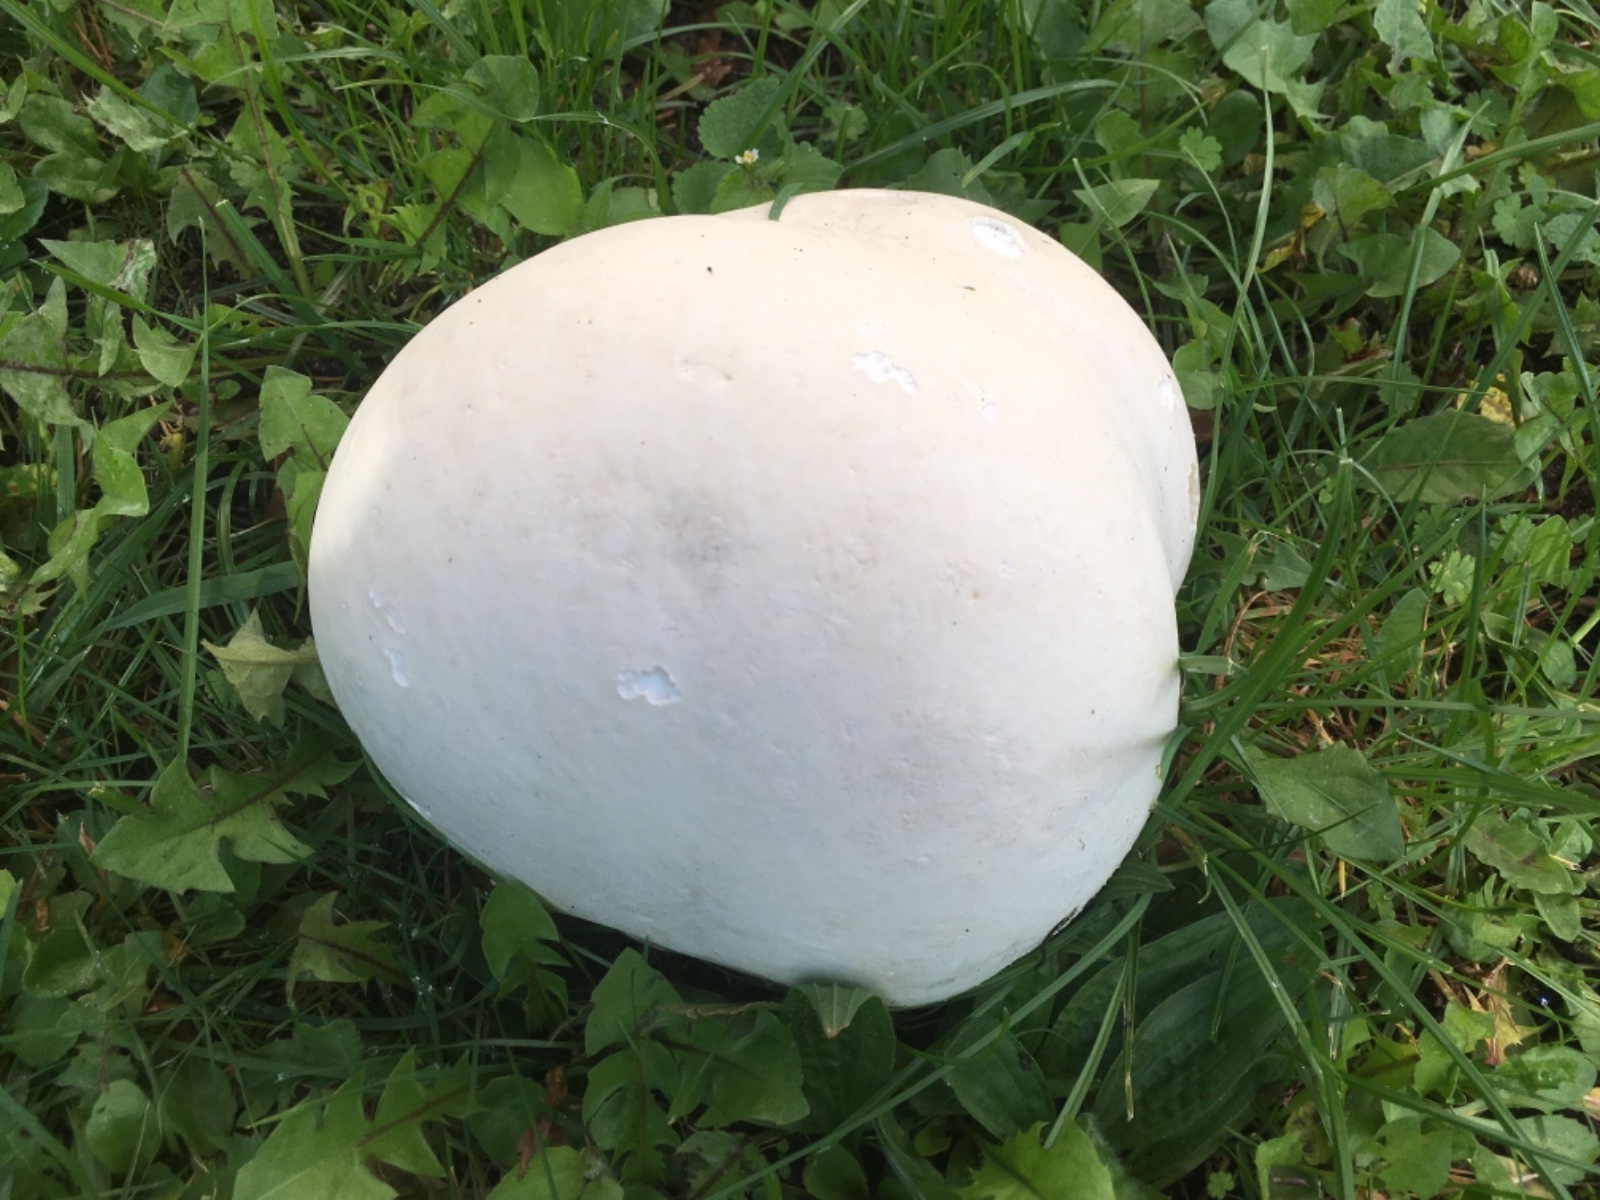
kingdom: Fungi
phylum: Basidiomycota
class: Agaricomycetes
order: Agaricales
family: Lycoperdaceae
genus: Calvatia
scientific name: Calvatia gigantea
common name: kæmpestøvbold
